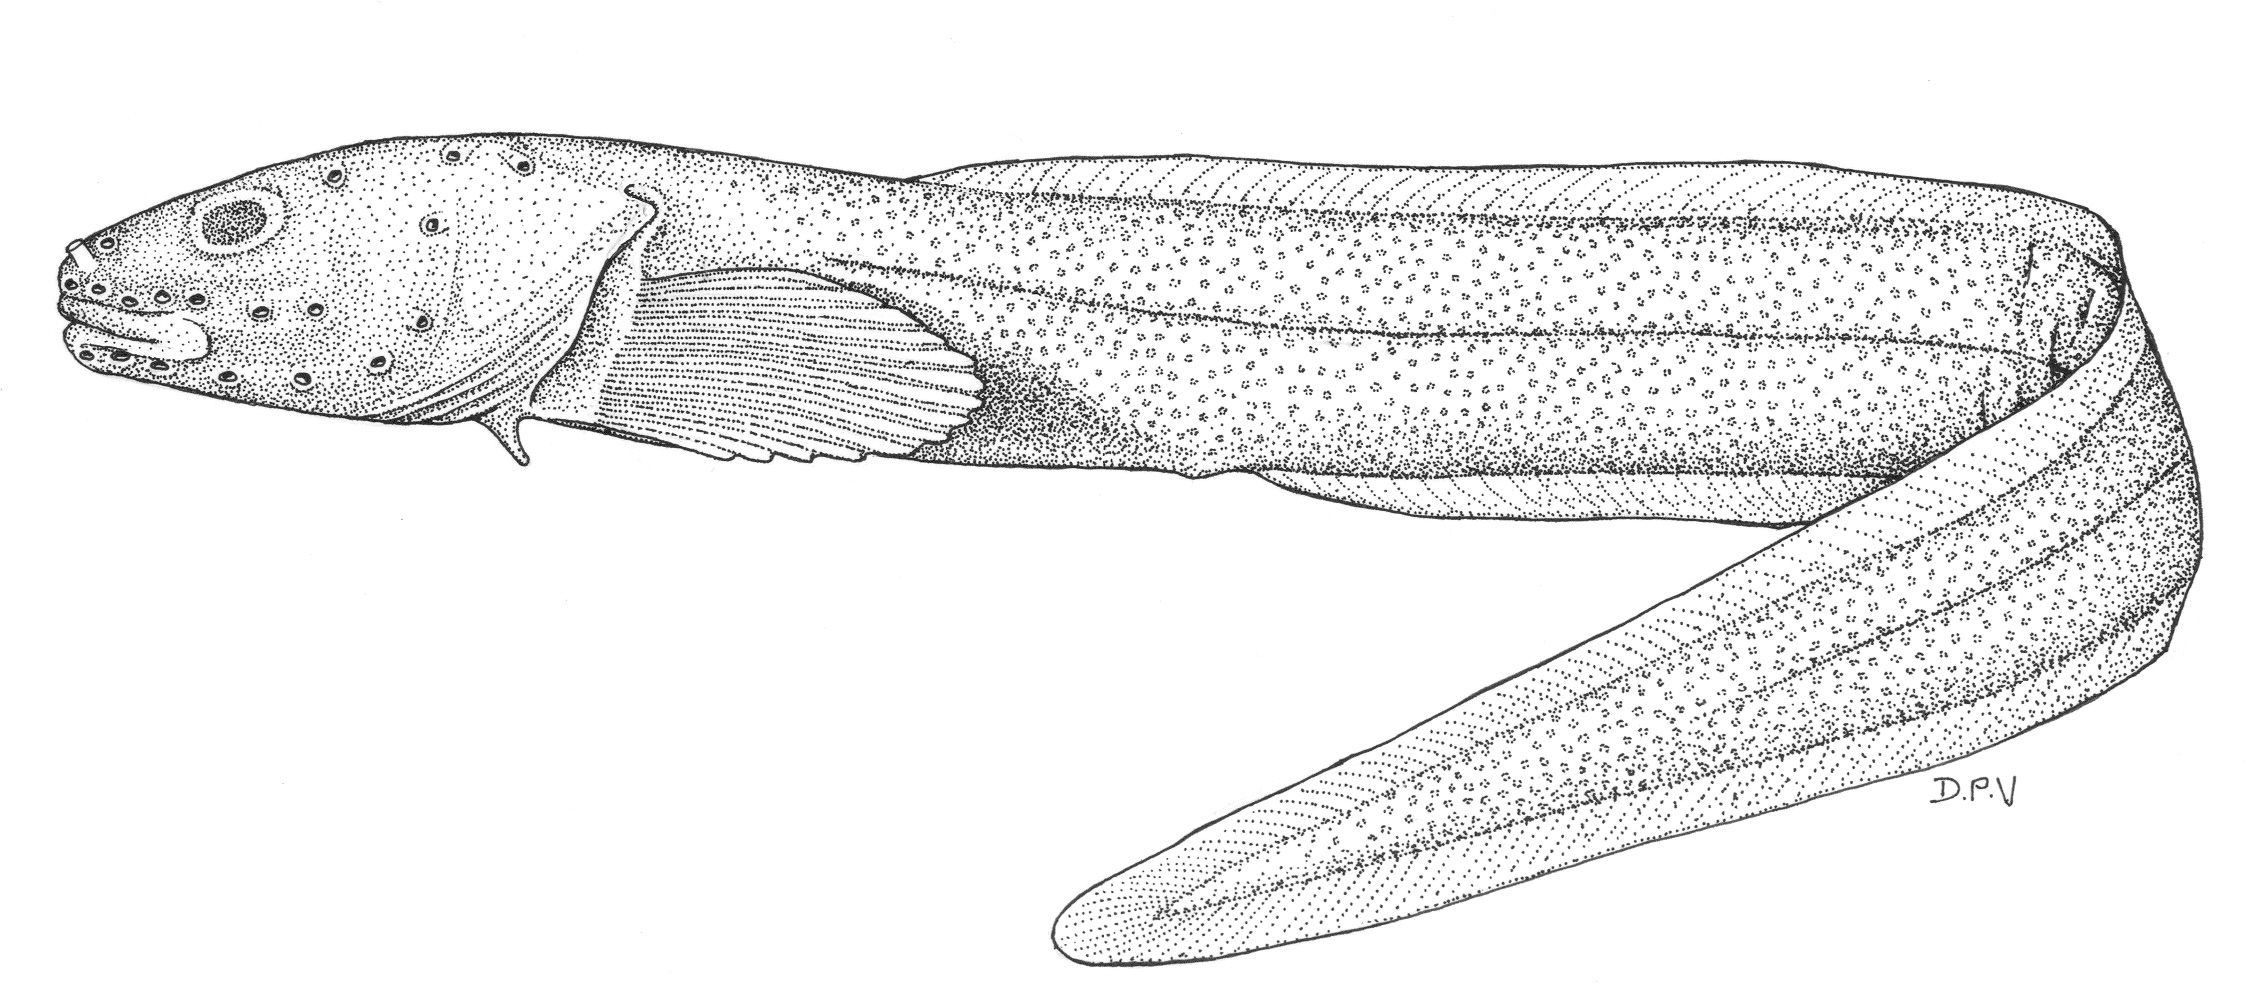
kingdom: Animalia
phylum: Chordata
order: Perciformes
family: Zoarcidae
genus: Pachycara
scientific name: Pachycara
